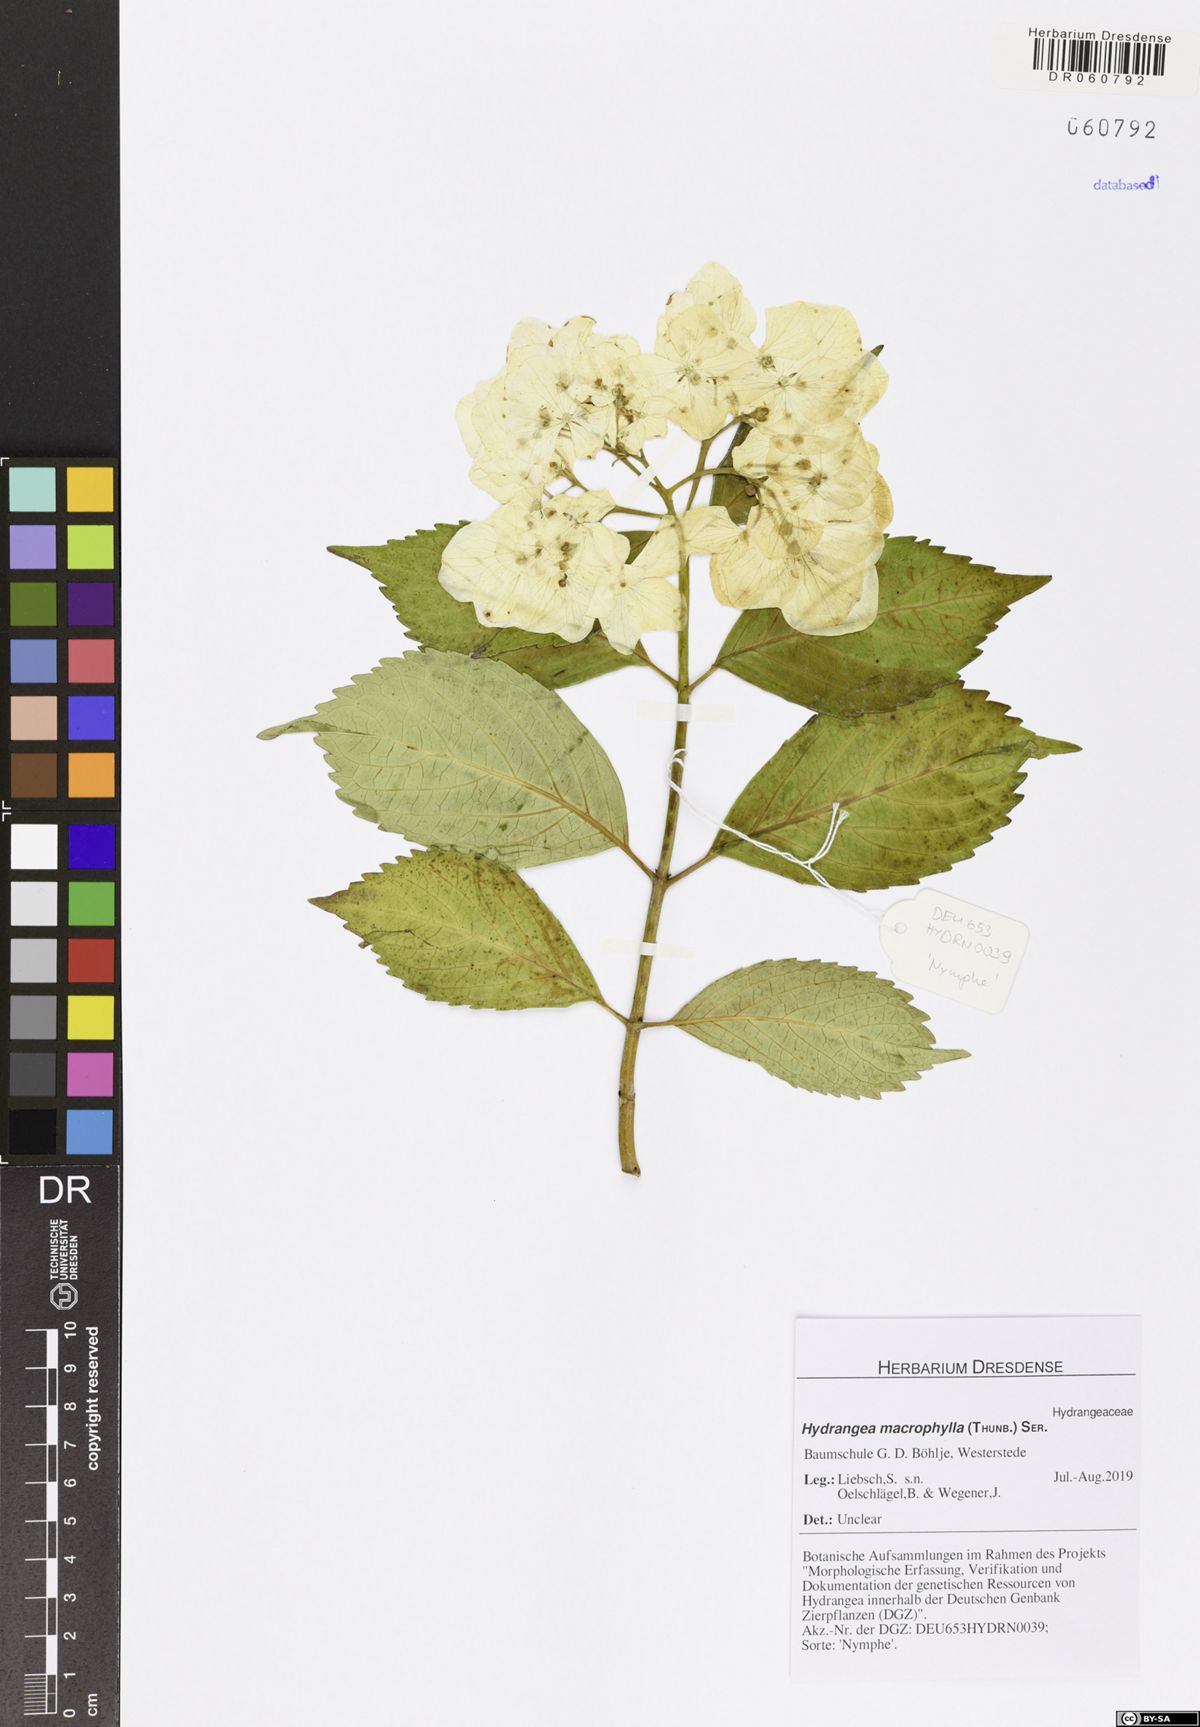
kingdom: Plantae
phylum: Tracheophyta
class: Magnoliopsida
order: Cornales
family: Hydrangeaceae
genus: Hydrangea
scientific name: Hydrangea macrophylla
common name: Hydrangea
